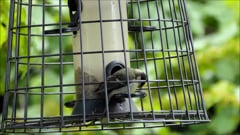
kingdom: Animalia
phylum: Chordata
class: Aves
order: Passeriformes
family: Paridae
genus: Parus
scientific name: Parus major
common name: Great tit
